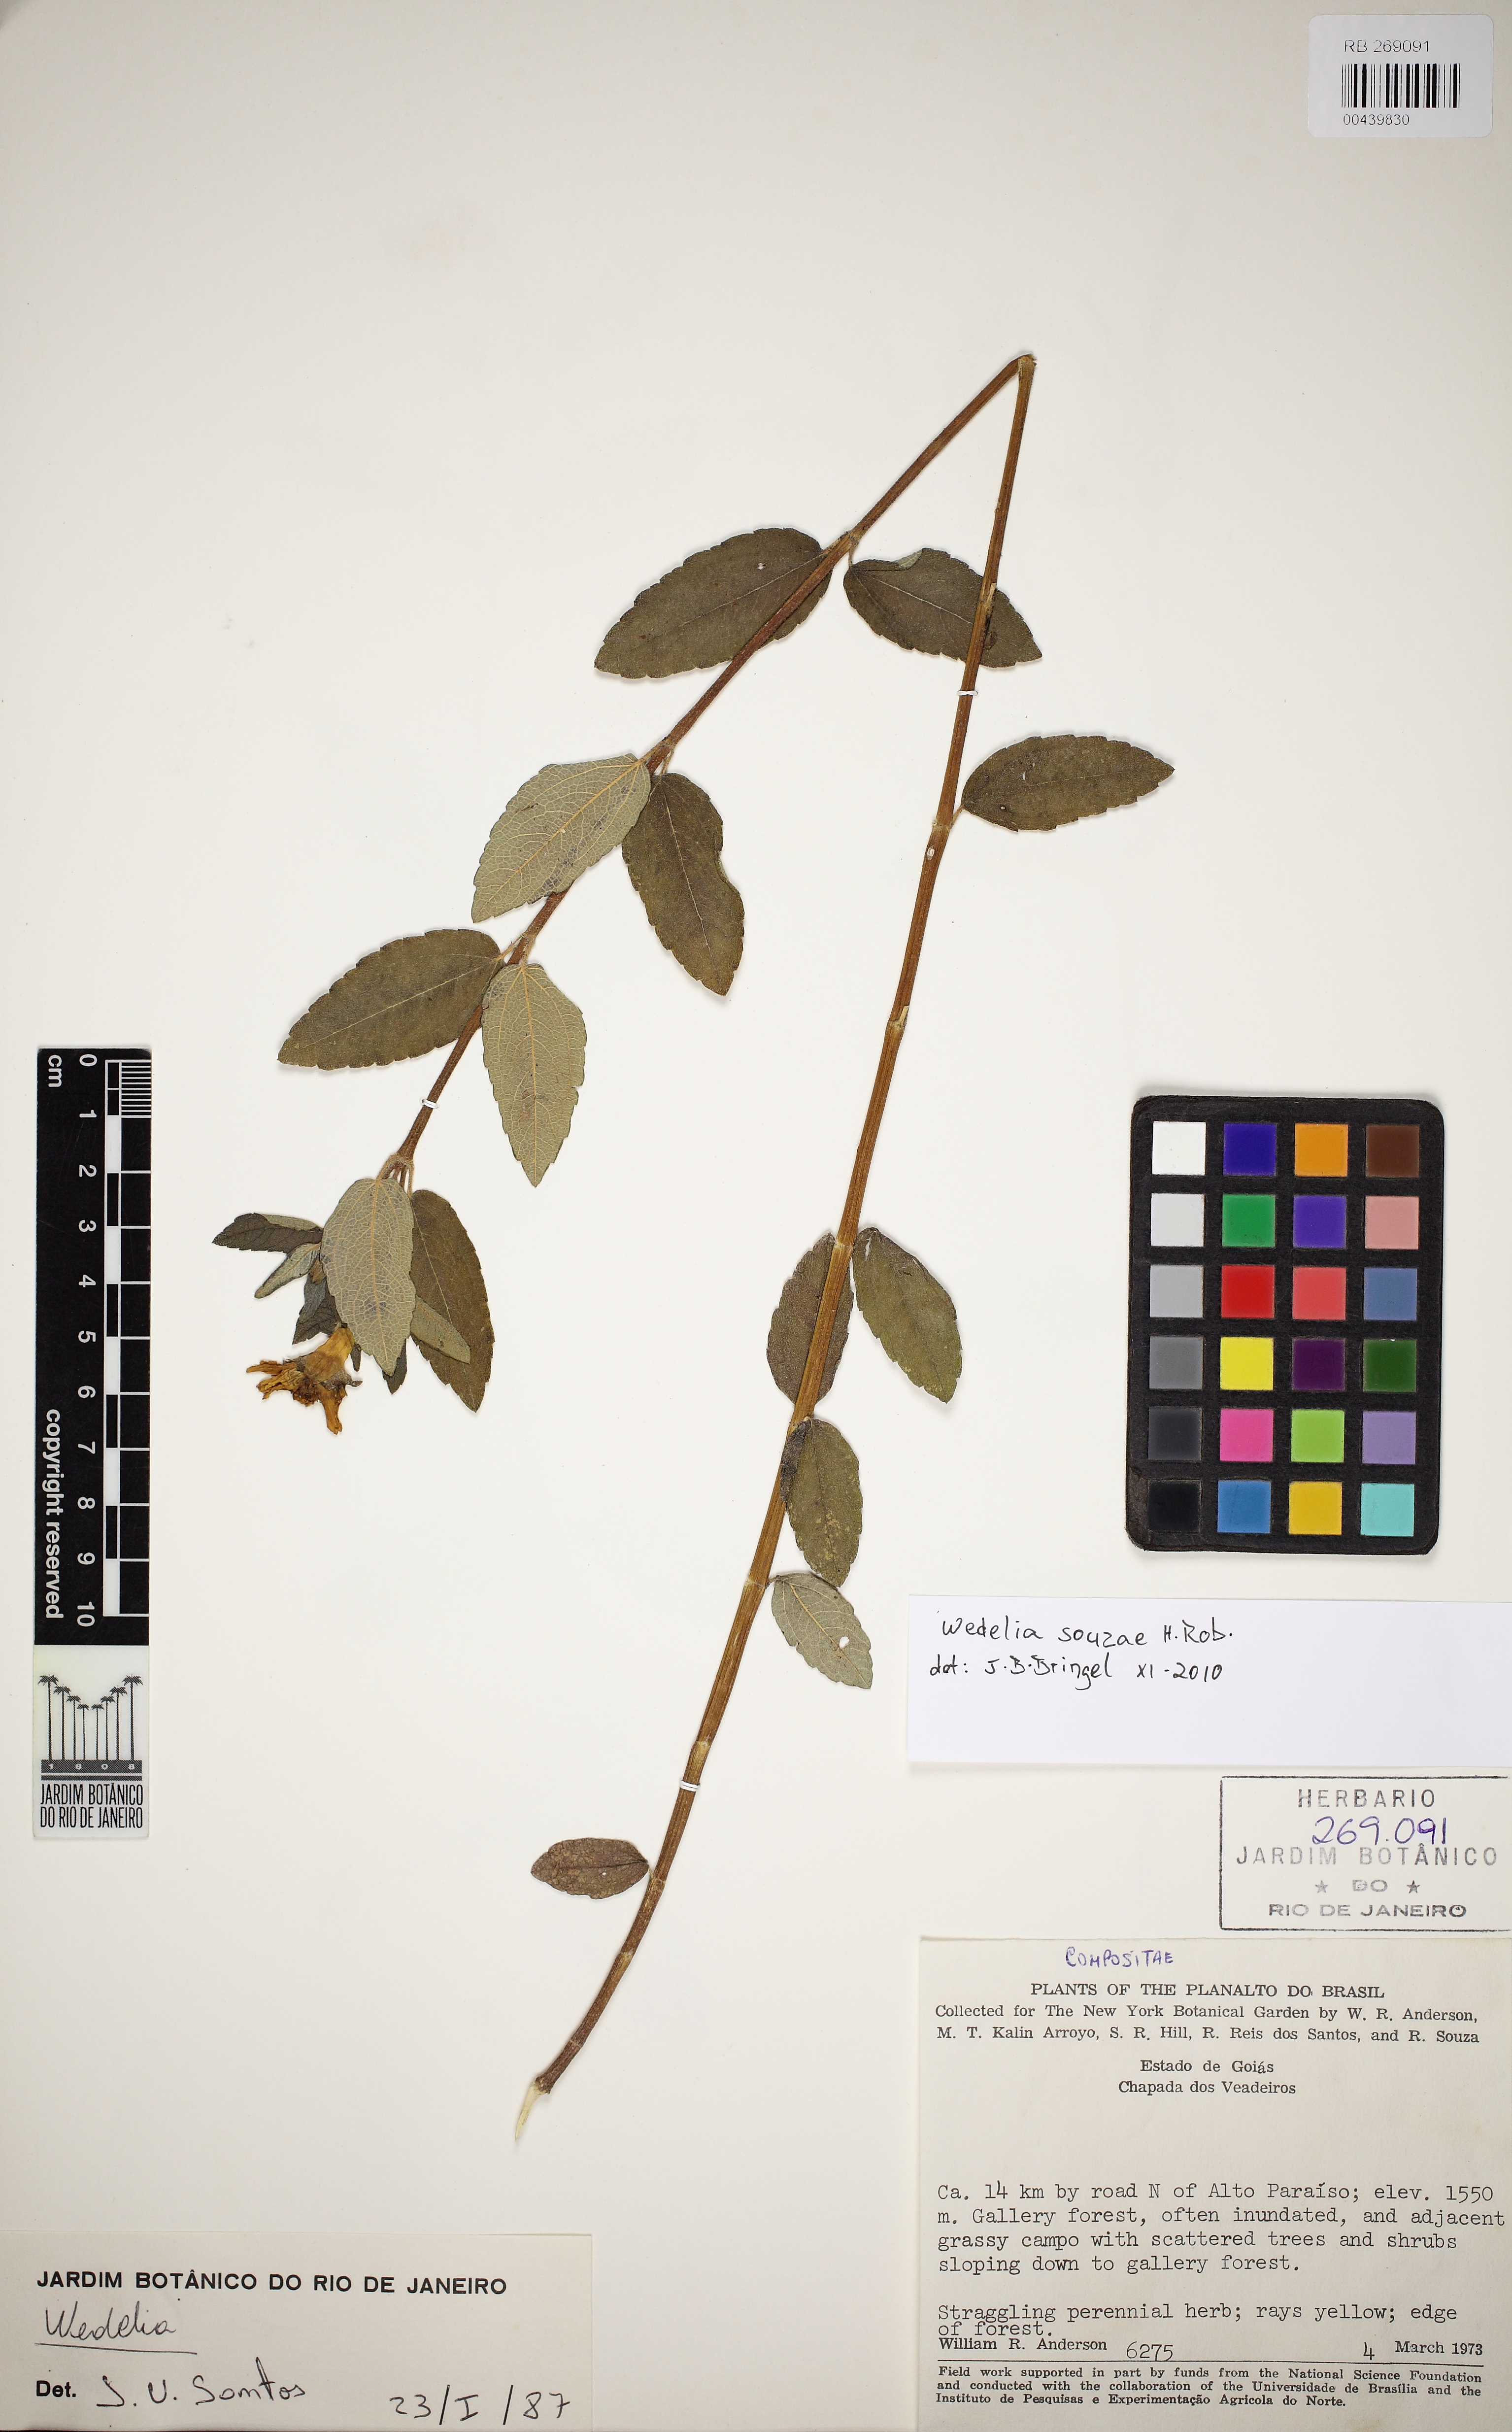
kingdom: Plantae
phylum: Tracheophyta
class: Magnoliopsida
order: Asterales
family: Asteraceae
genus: Wedelia
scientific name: Wedelia souzae
